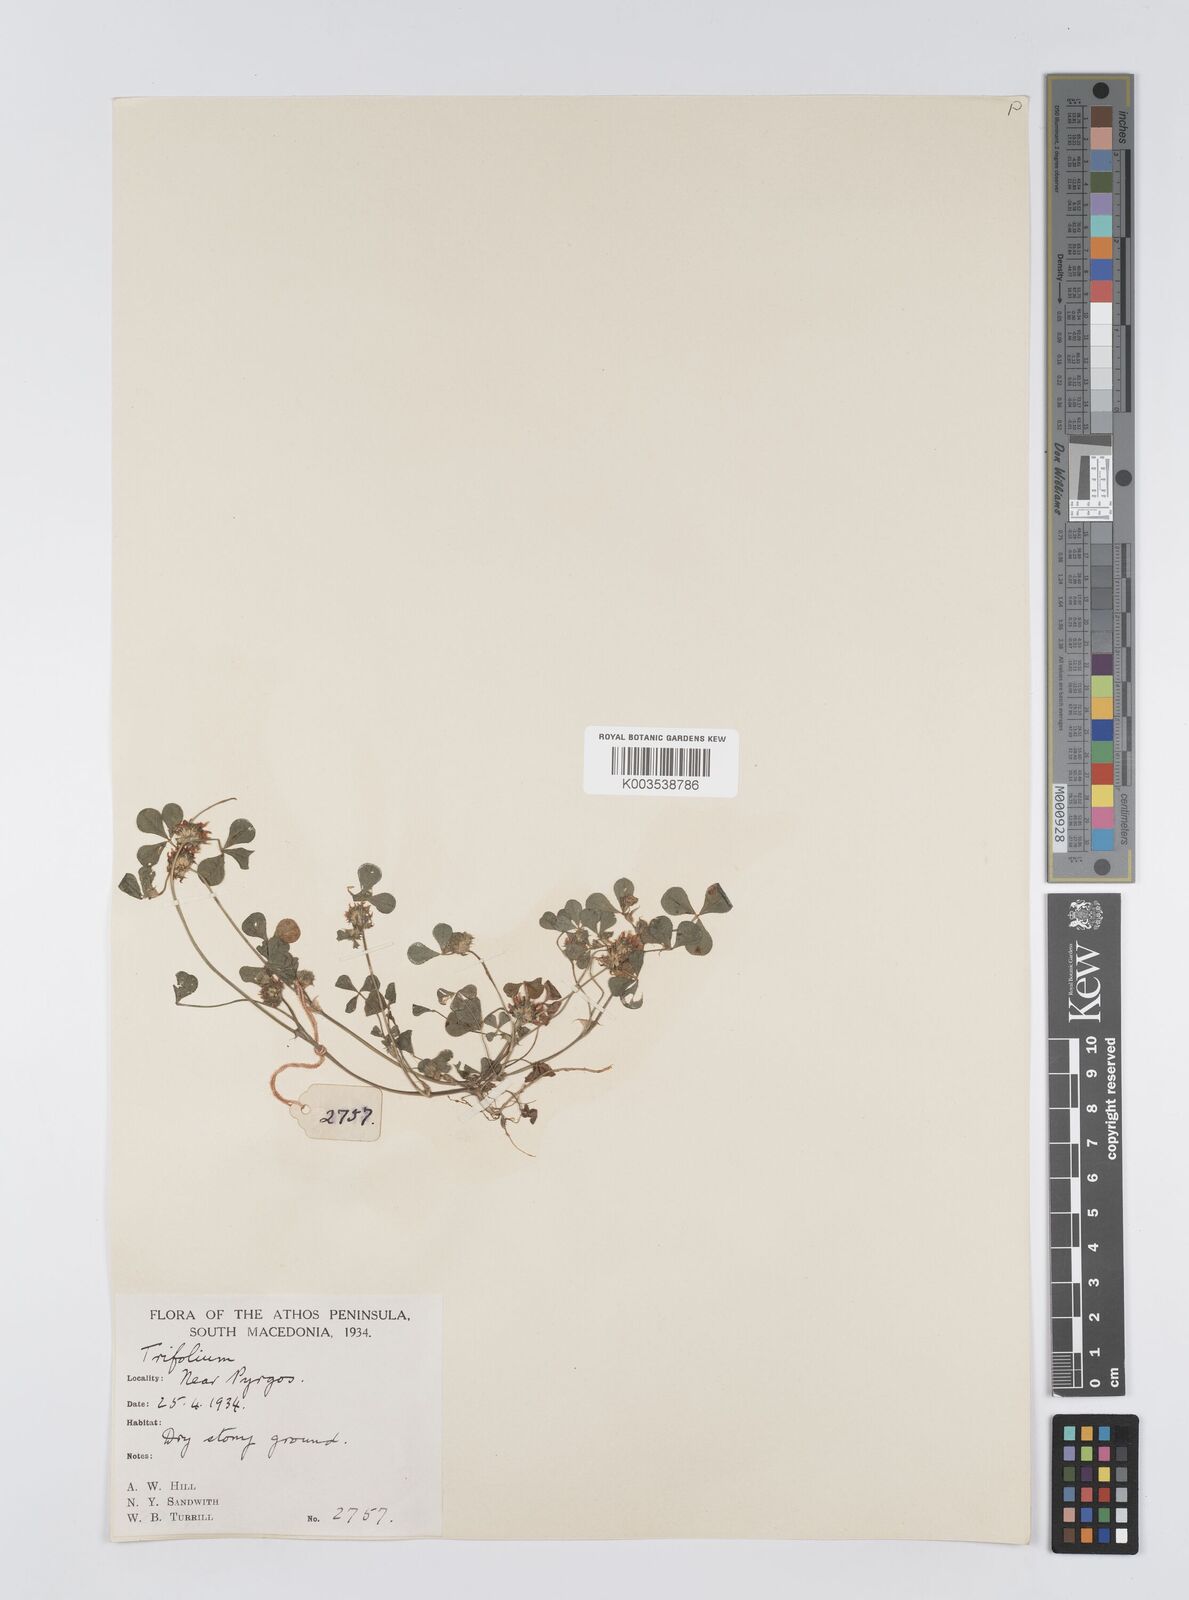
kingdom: Plantae
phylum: Tracheophyta
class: Magnoliopsida
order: Fabales
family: Fabaceae
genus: Trifolium
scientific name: Trifolium glomeratum
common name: Clustered clover
